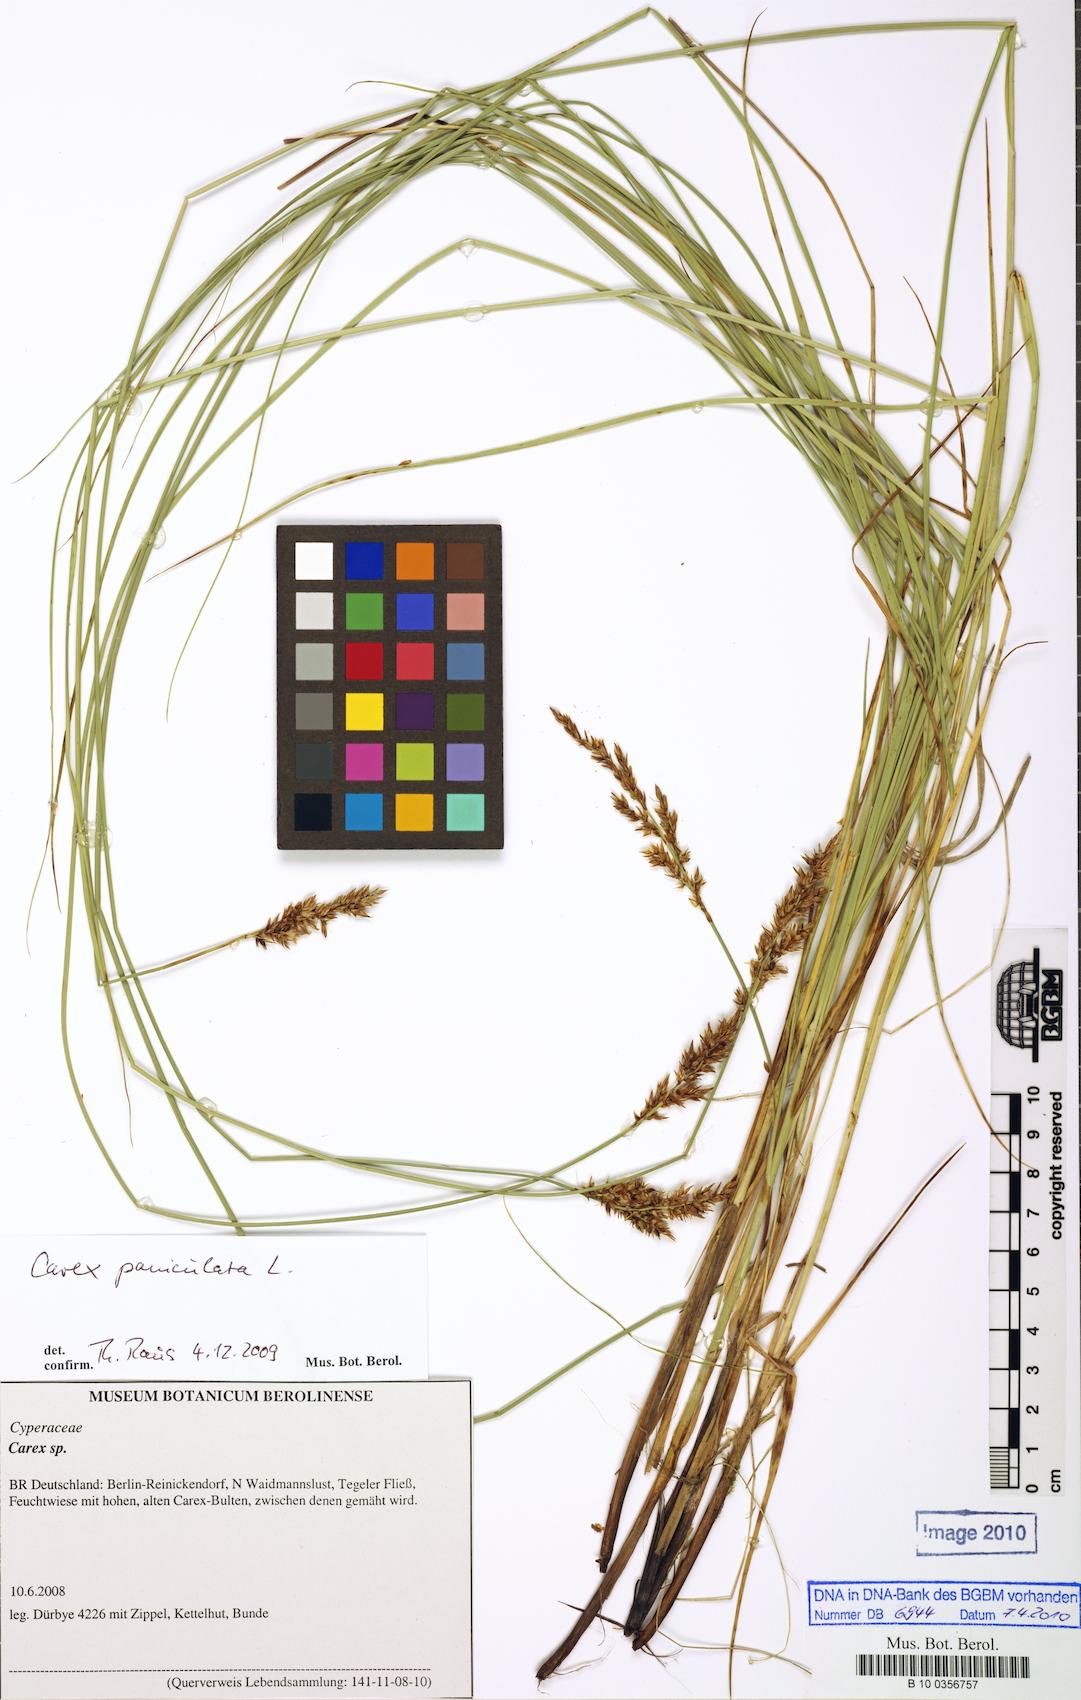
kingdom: Plantae
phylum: Tracheophyta
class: Liliopsida
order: Poales
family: Cyperaceae
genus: Carex
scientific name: Carex paniculata
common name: Greater tussock-sedge
